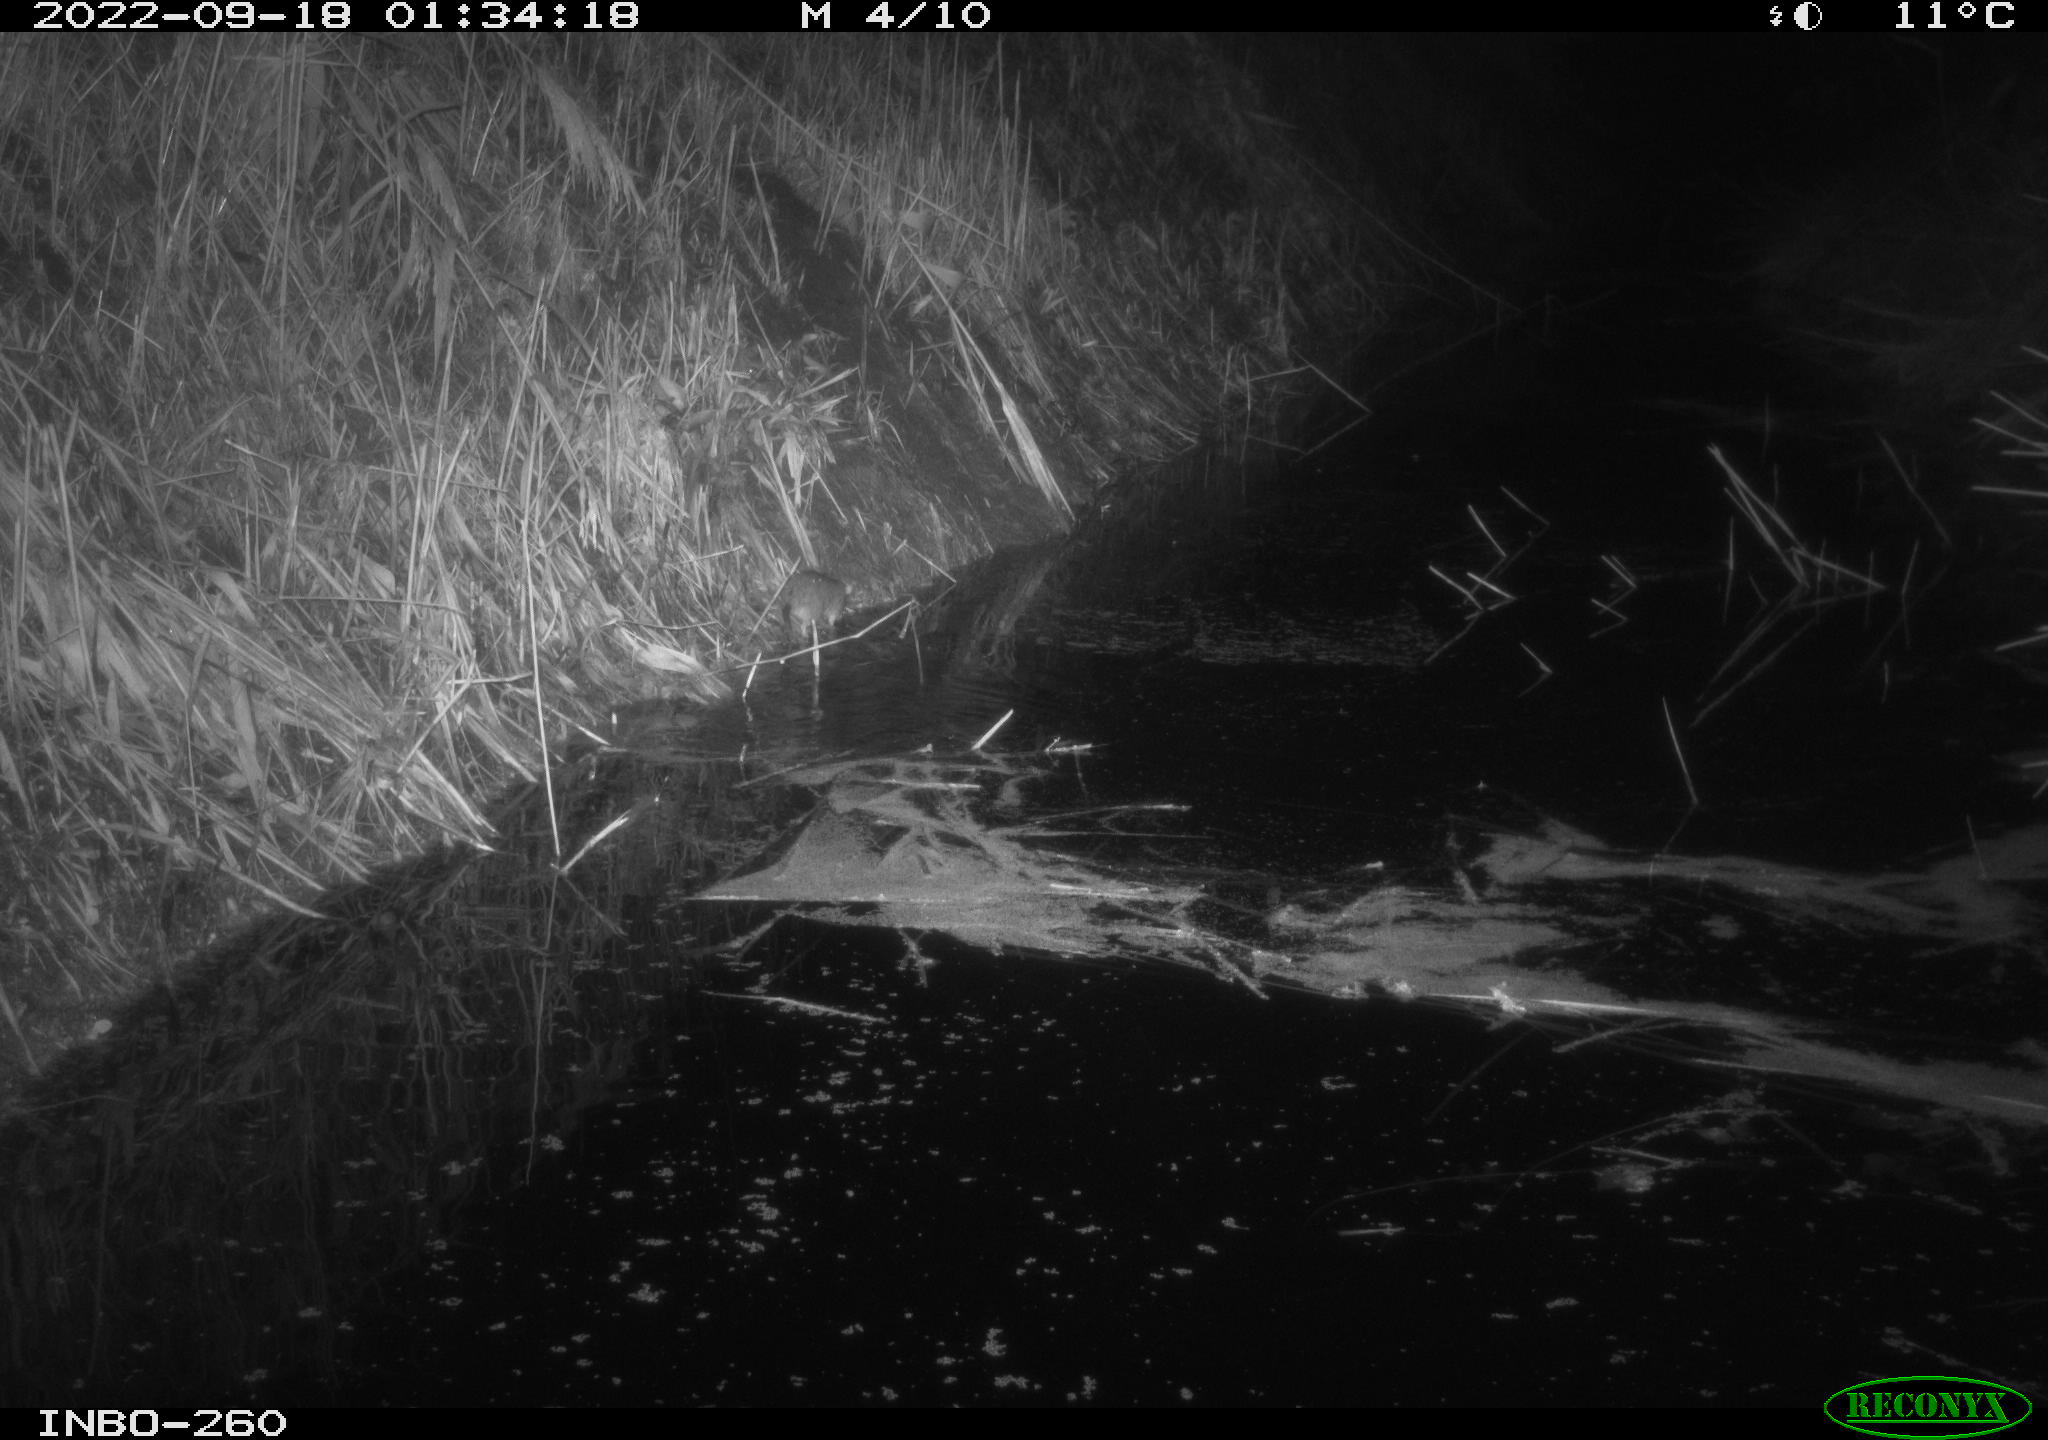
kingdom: Animalia
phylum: Chordata
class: Mammalia
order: Rodentia
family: Muridae
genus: Rattus
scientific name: Rattus norvegicus
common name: Brown rat
